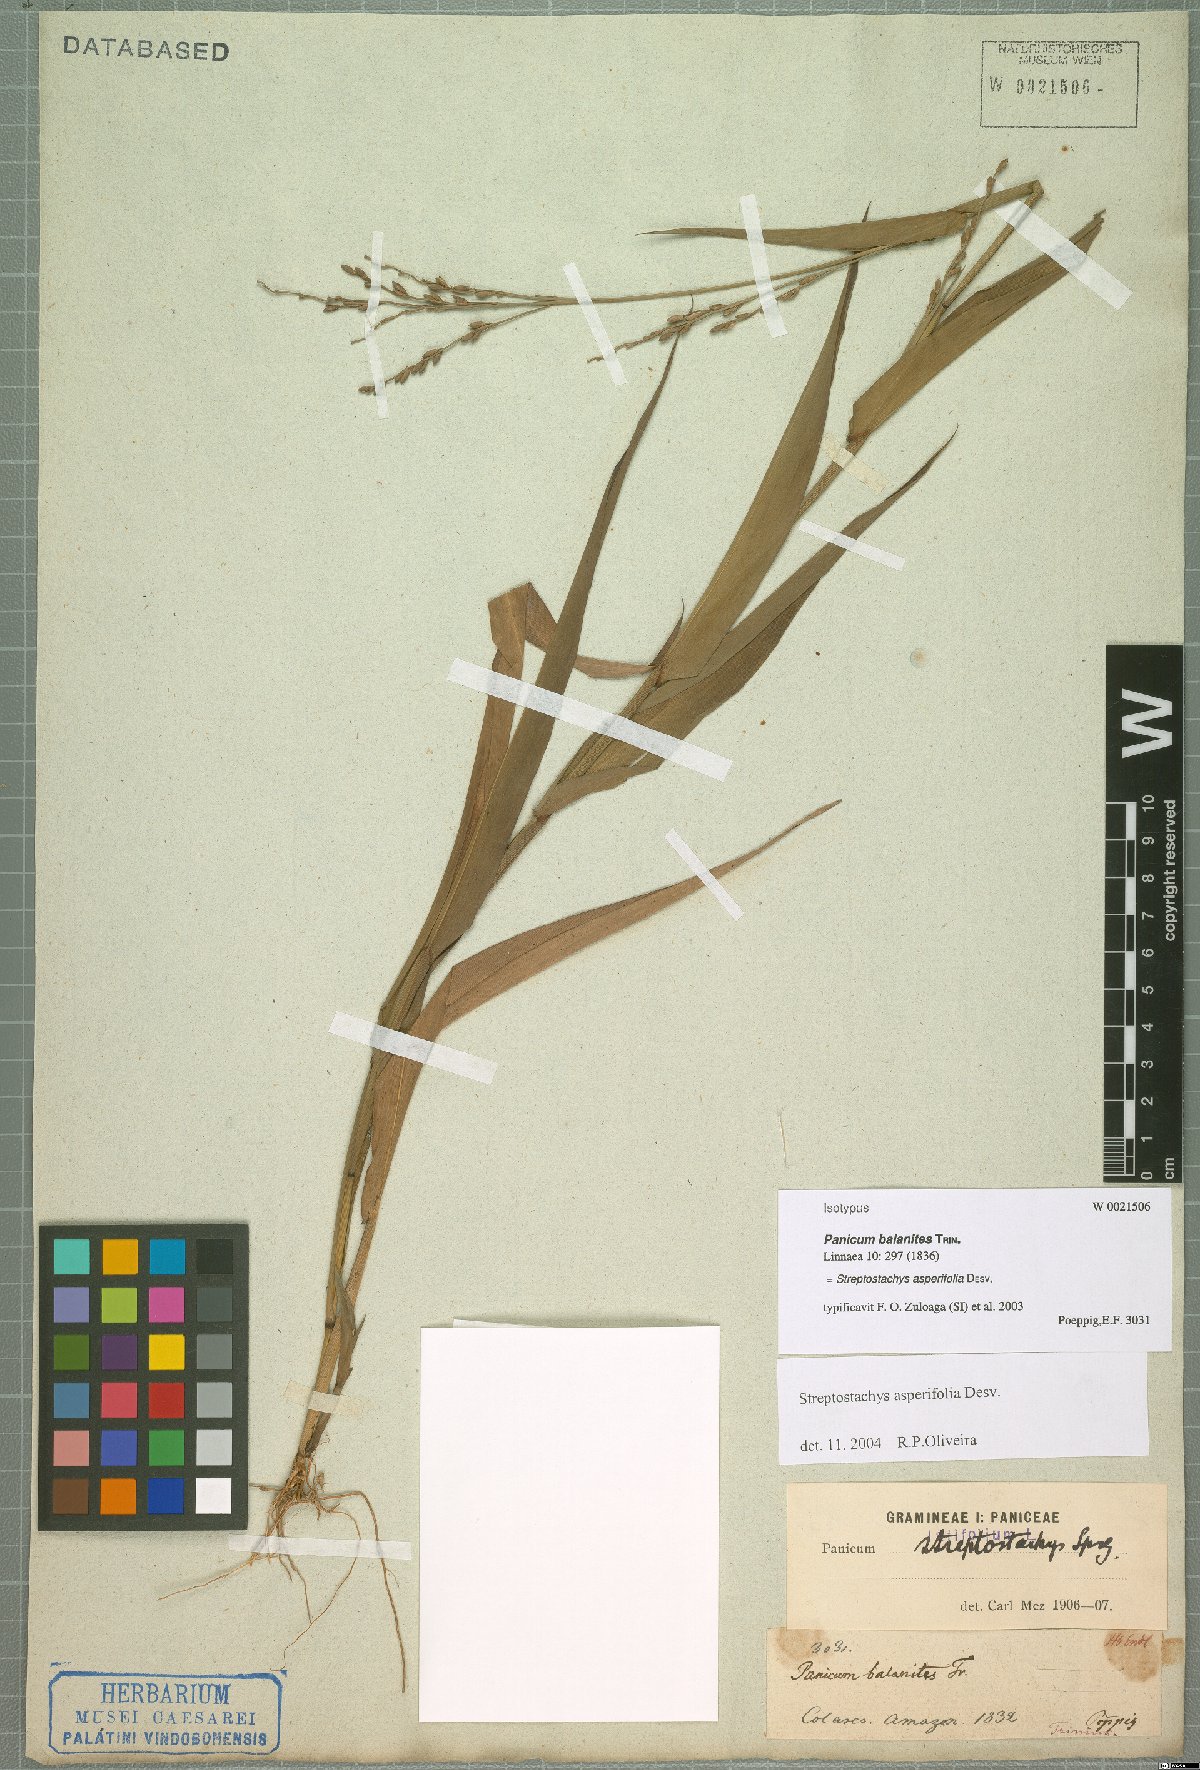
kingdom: Plantae
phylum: Tracheophyta
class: Liliopsida
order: Poales
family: Poaceae
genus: Streptostachys
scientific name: Streptostachys asperifolia
